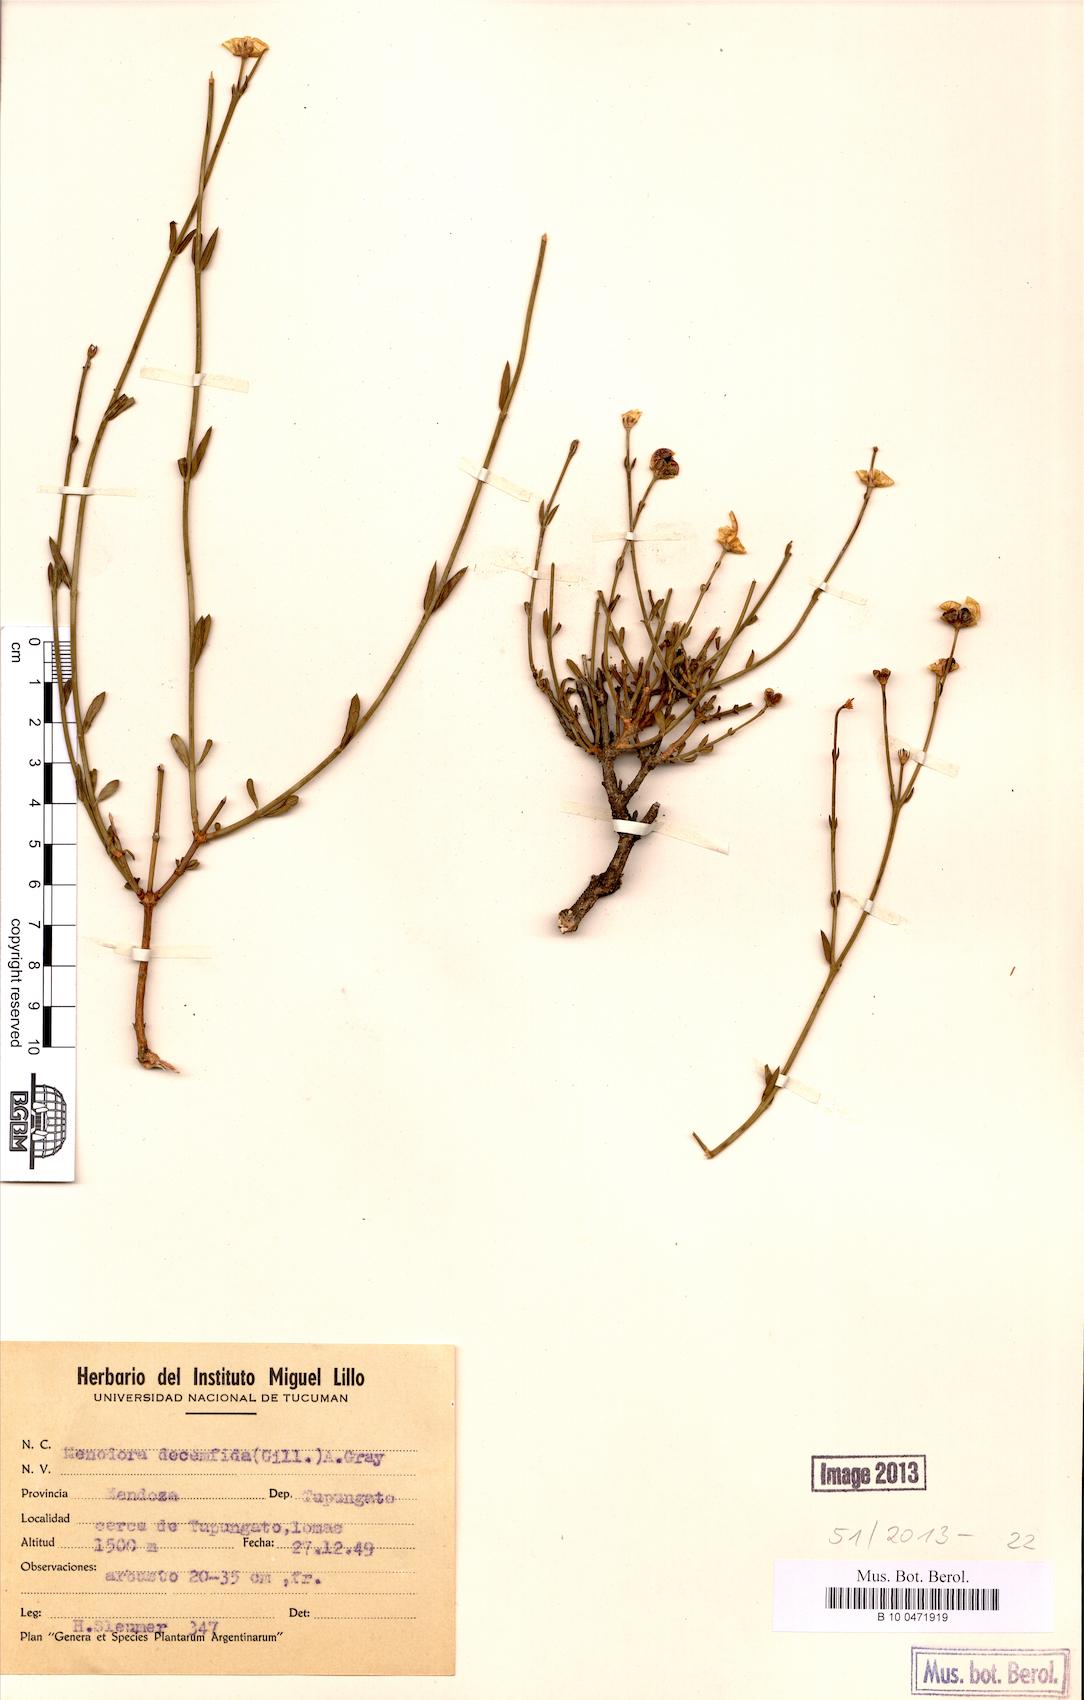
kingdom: Plantae
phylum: Tracheophyta
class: Magnoliopsida
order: Lamiales
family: Oleaceae
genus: Menodora
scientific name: Menodora decemfida
